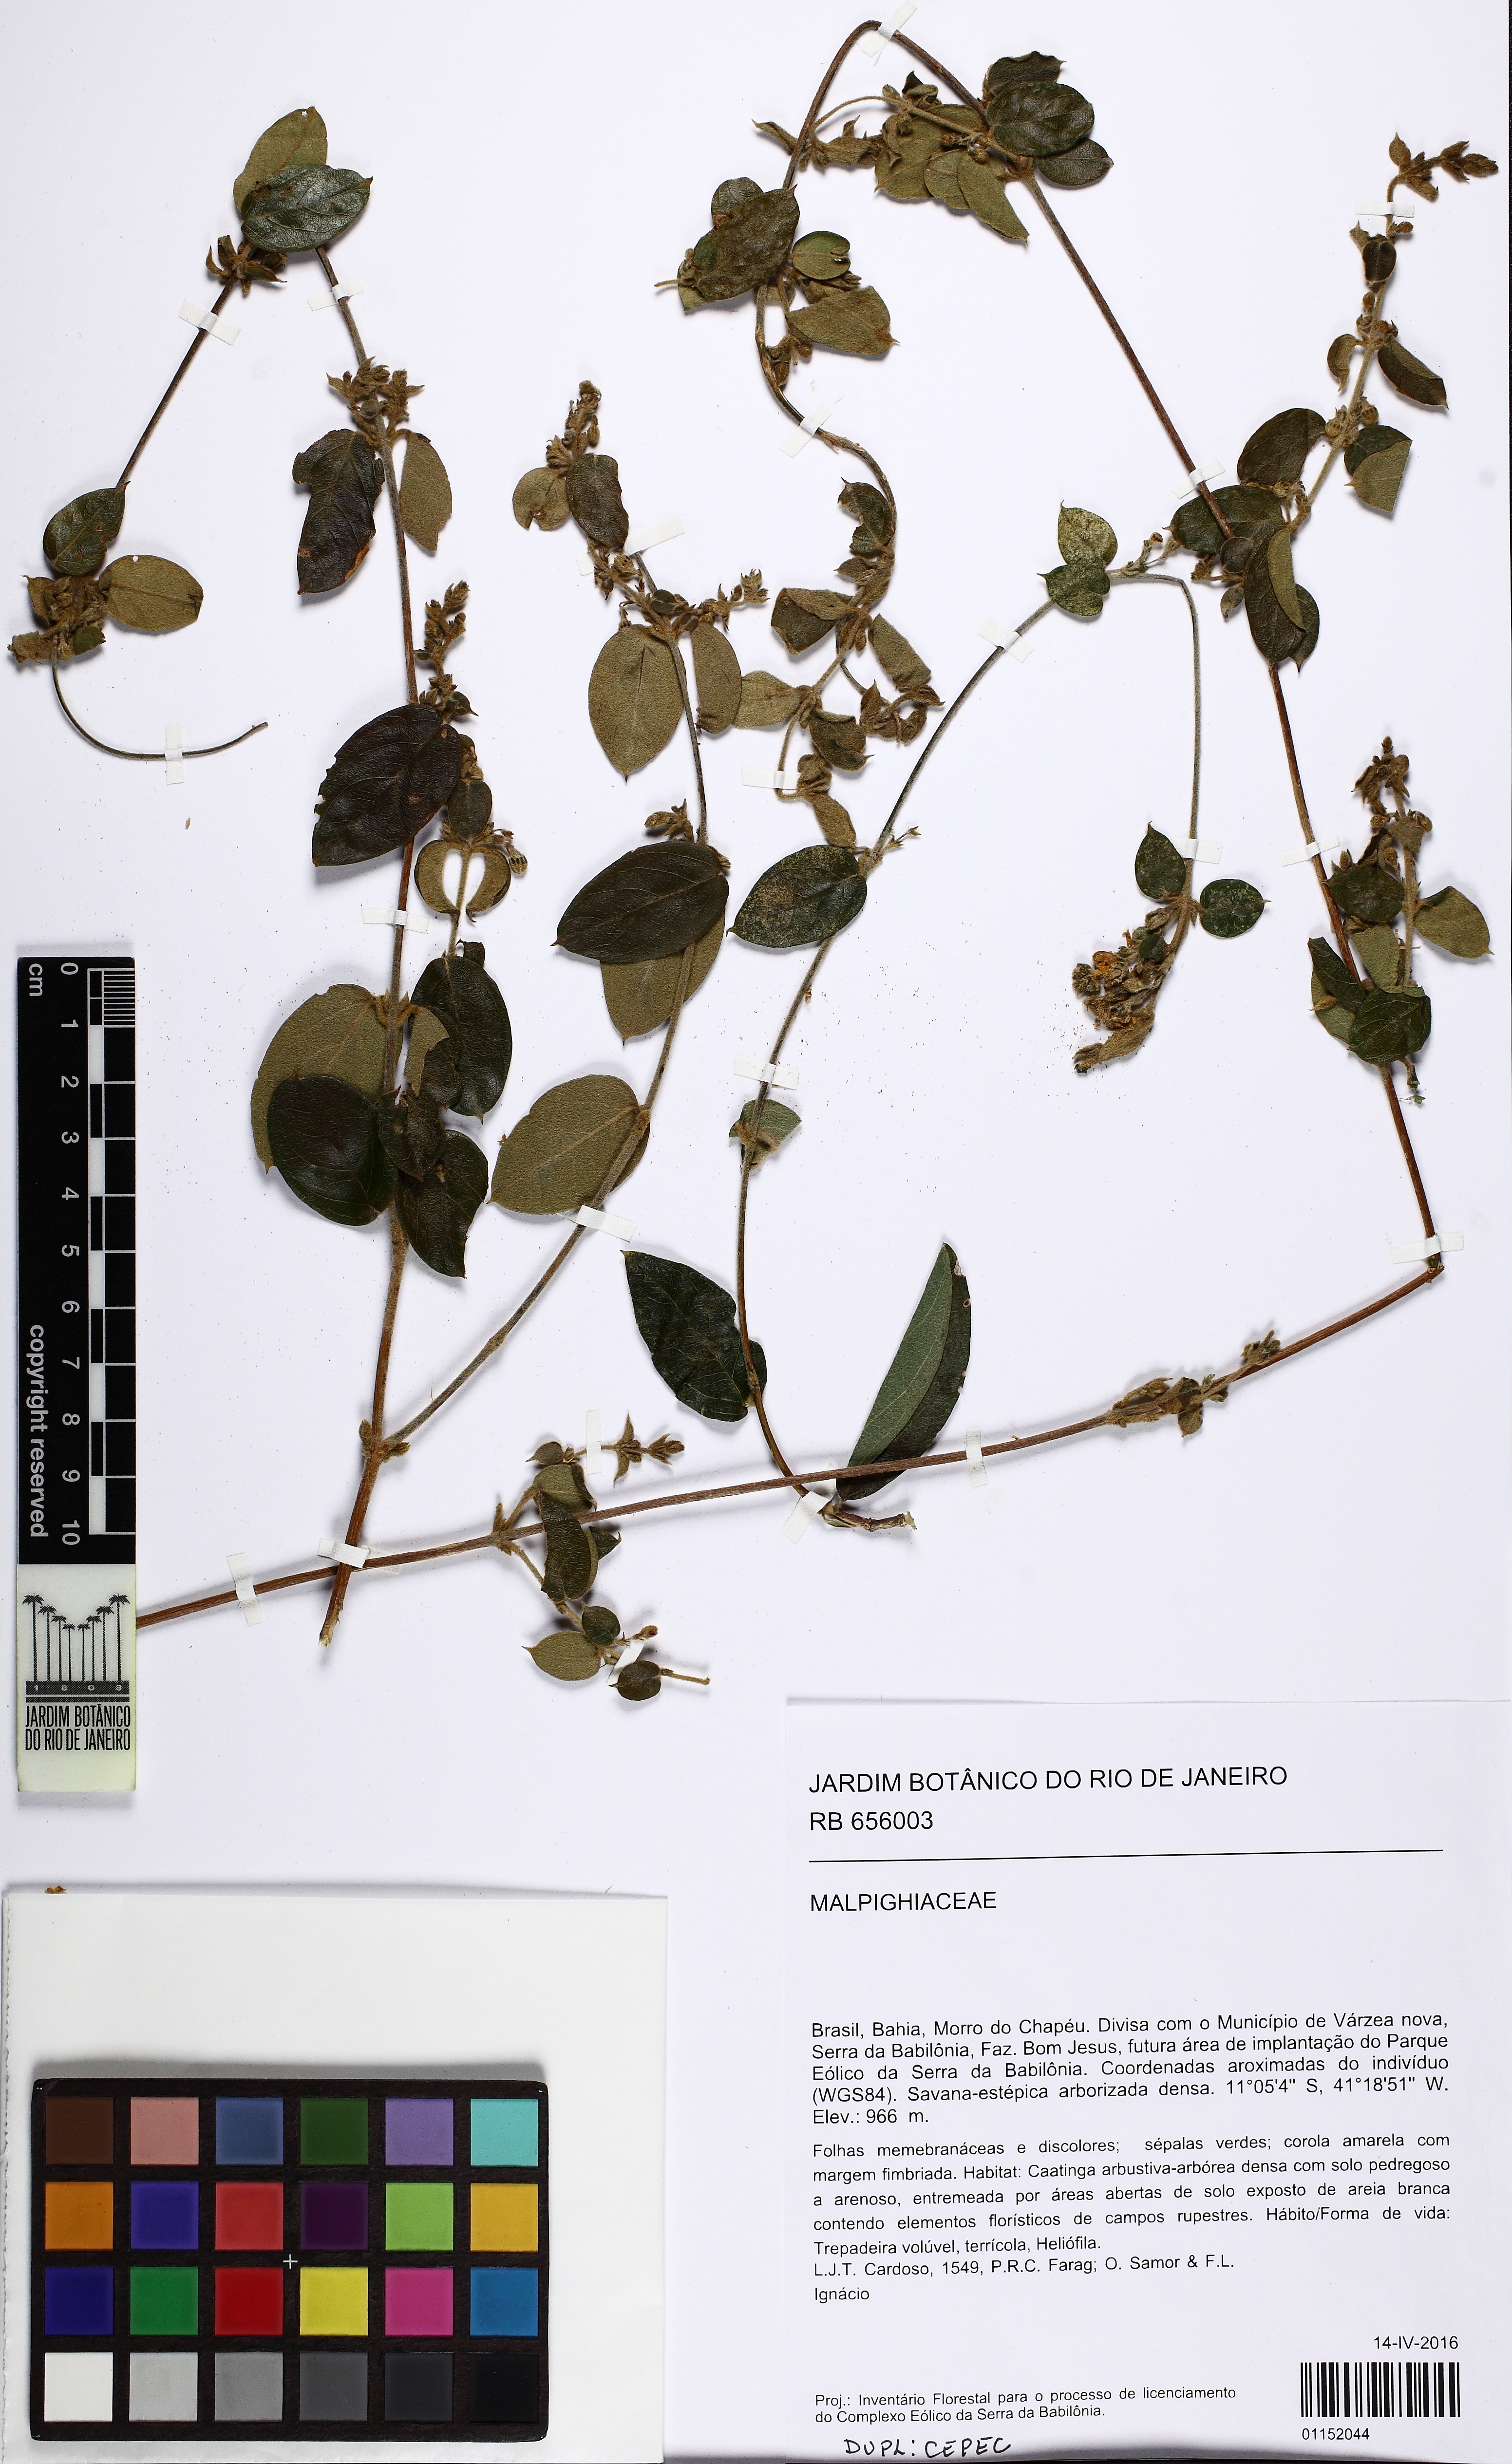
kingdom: Plantae
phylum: Tracheophyta
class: Magnoliopsida
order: Malpighiales
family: Malpighiaceae
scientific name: Malpighiaceae
